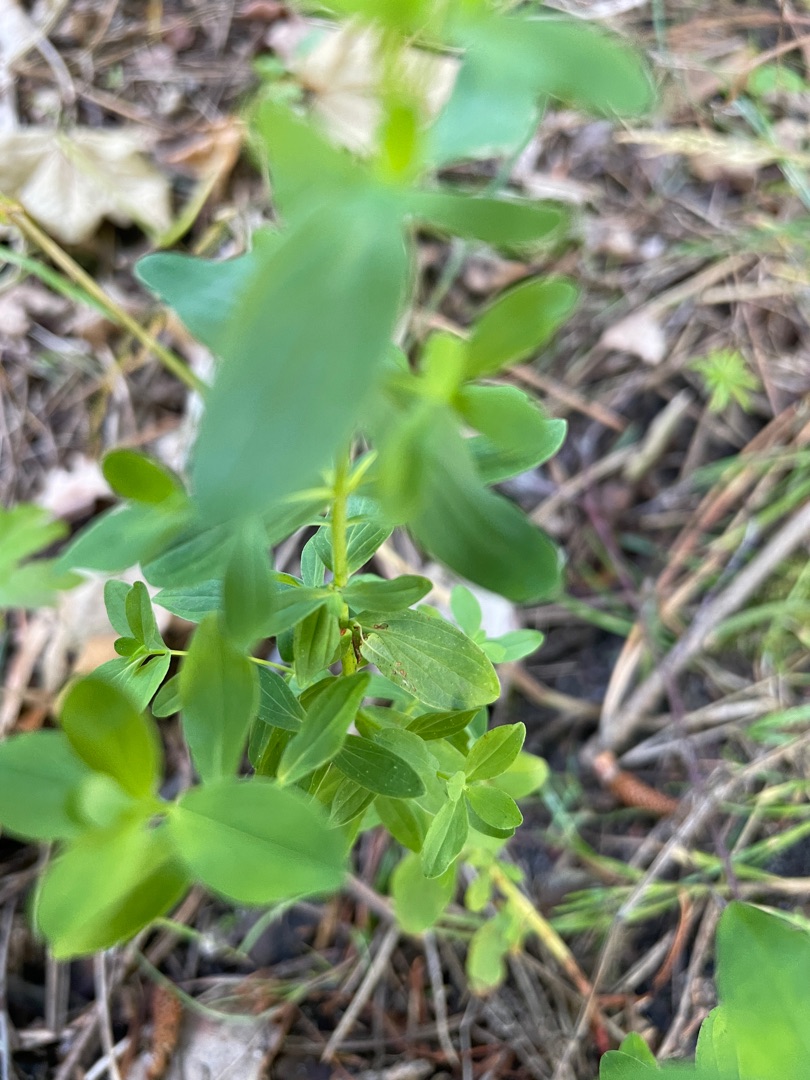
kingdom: Plantae
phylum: Tracheophyta
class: Magnoliopsida
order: Malpighiales
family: Hypericaceae
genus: Hypericum
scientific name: Hypericum
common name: Perikonslægten
